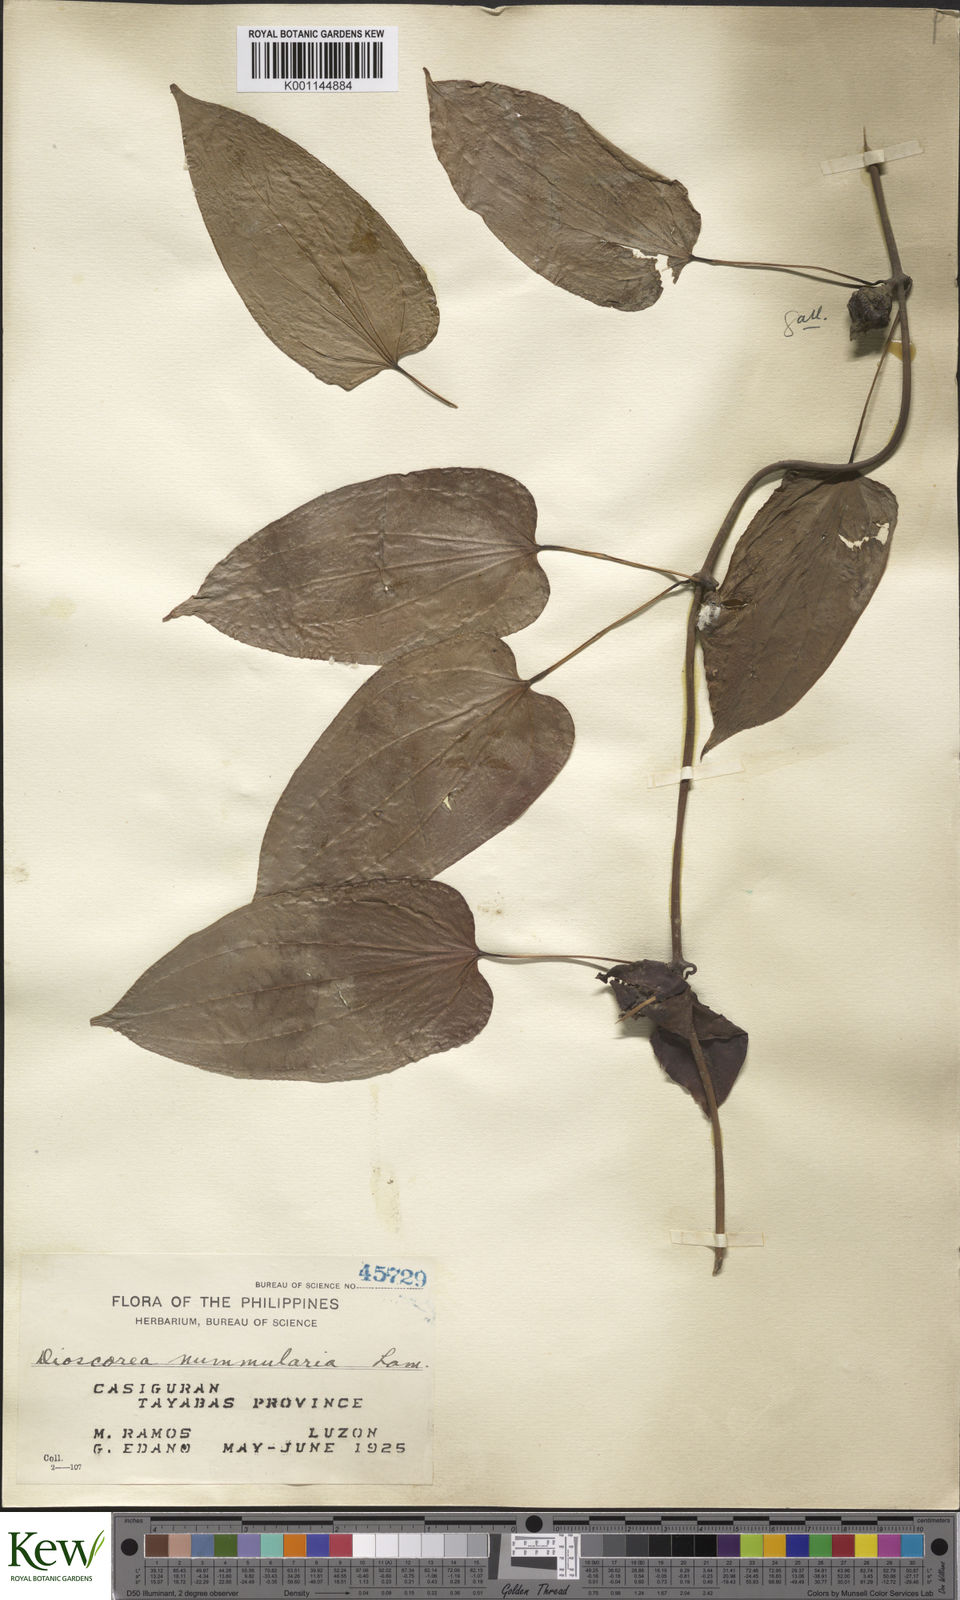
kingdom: Plantae
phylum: Tracheophyta
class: Liliopsida
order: Dioscoreales
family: Dioscoreaceae
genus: Dioscorea
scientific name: Dioscorea nummularia
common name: Pacific yam
